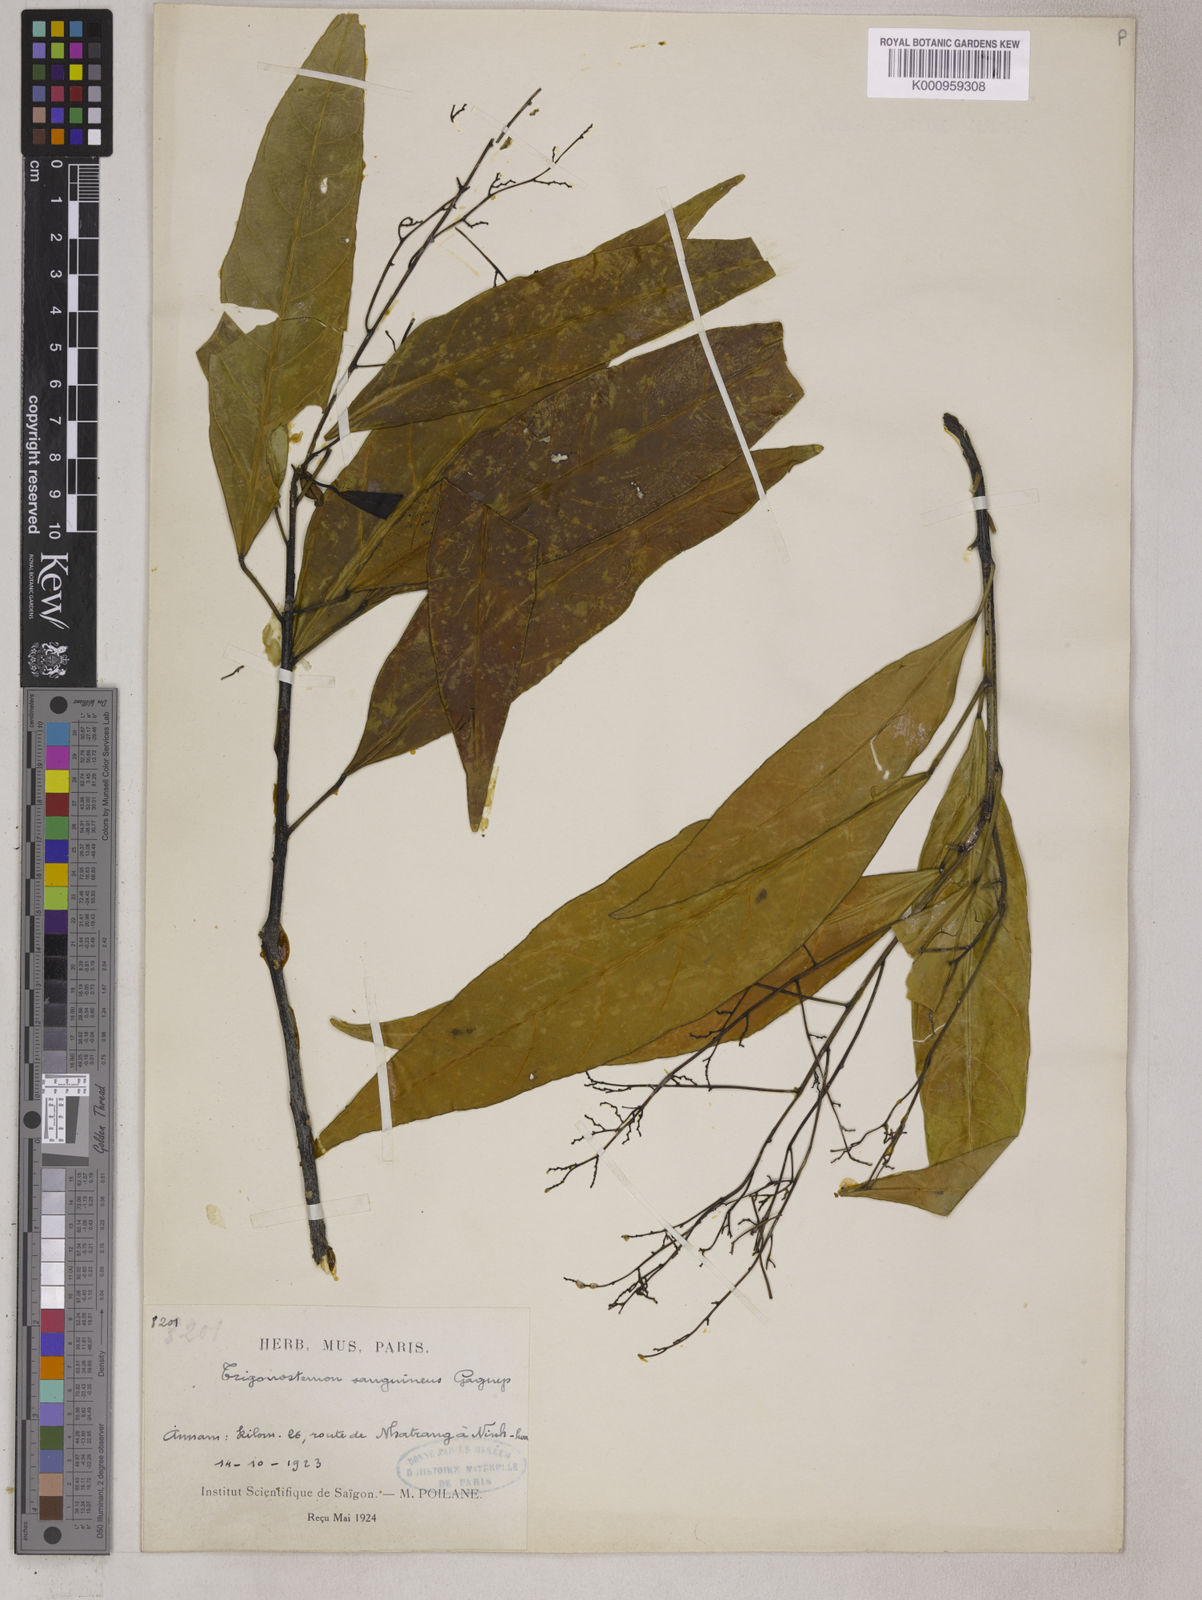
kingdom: Plantae
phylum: Tracheophyta
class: Magnoliopsida
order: Malpighiales
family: Euphorbiaceae
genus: Trigonostemon
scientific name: Trigonostemon viridissimus
